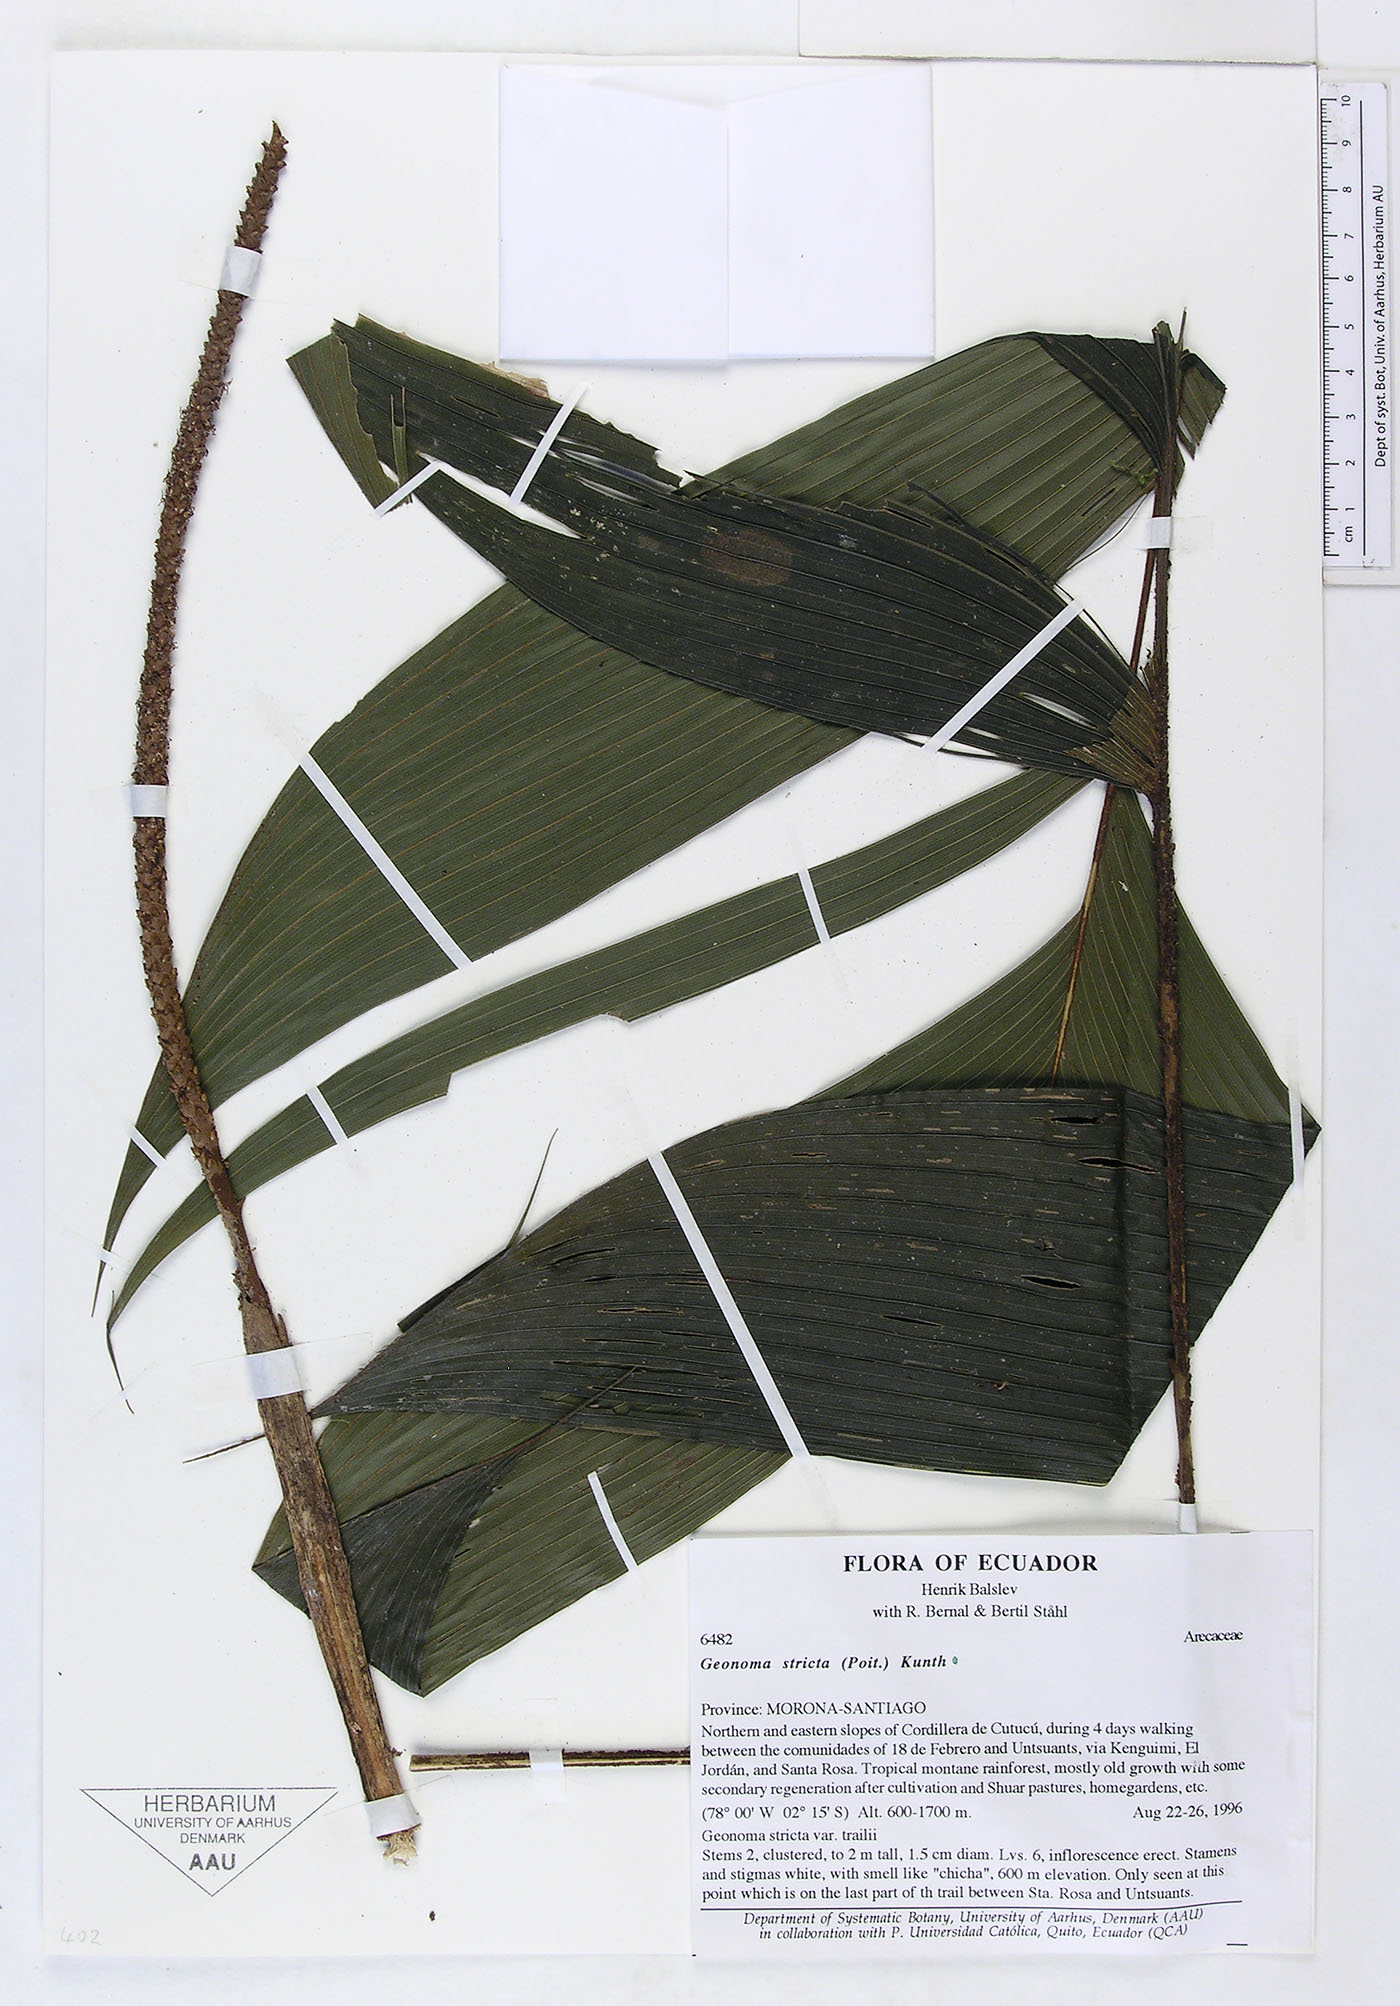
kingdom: Plantae
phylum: Tracheophyta
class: Liliopsida
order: Arecales
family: Arecaceae
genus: Geonoma
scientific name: Geonoma stricta
